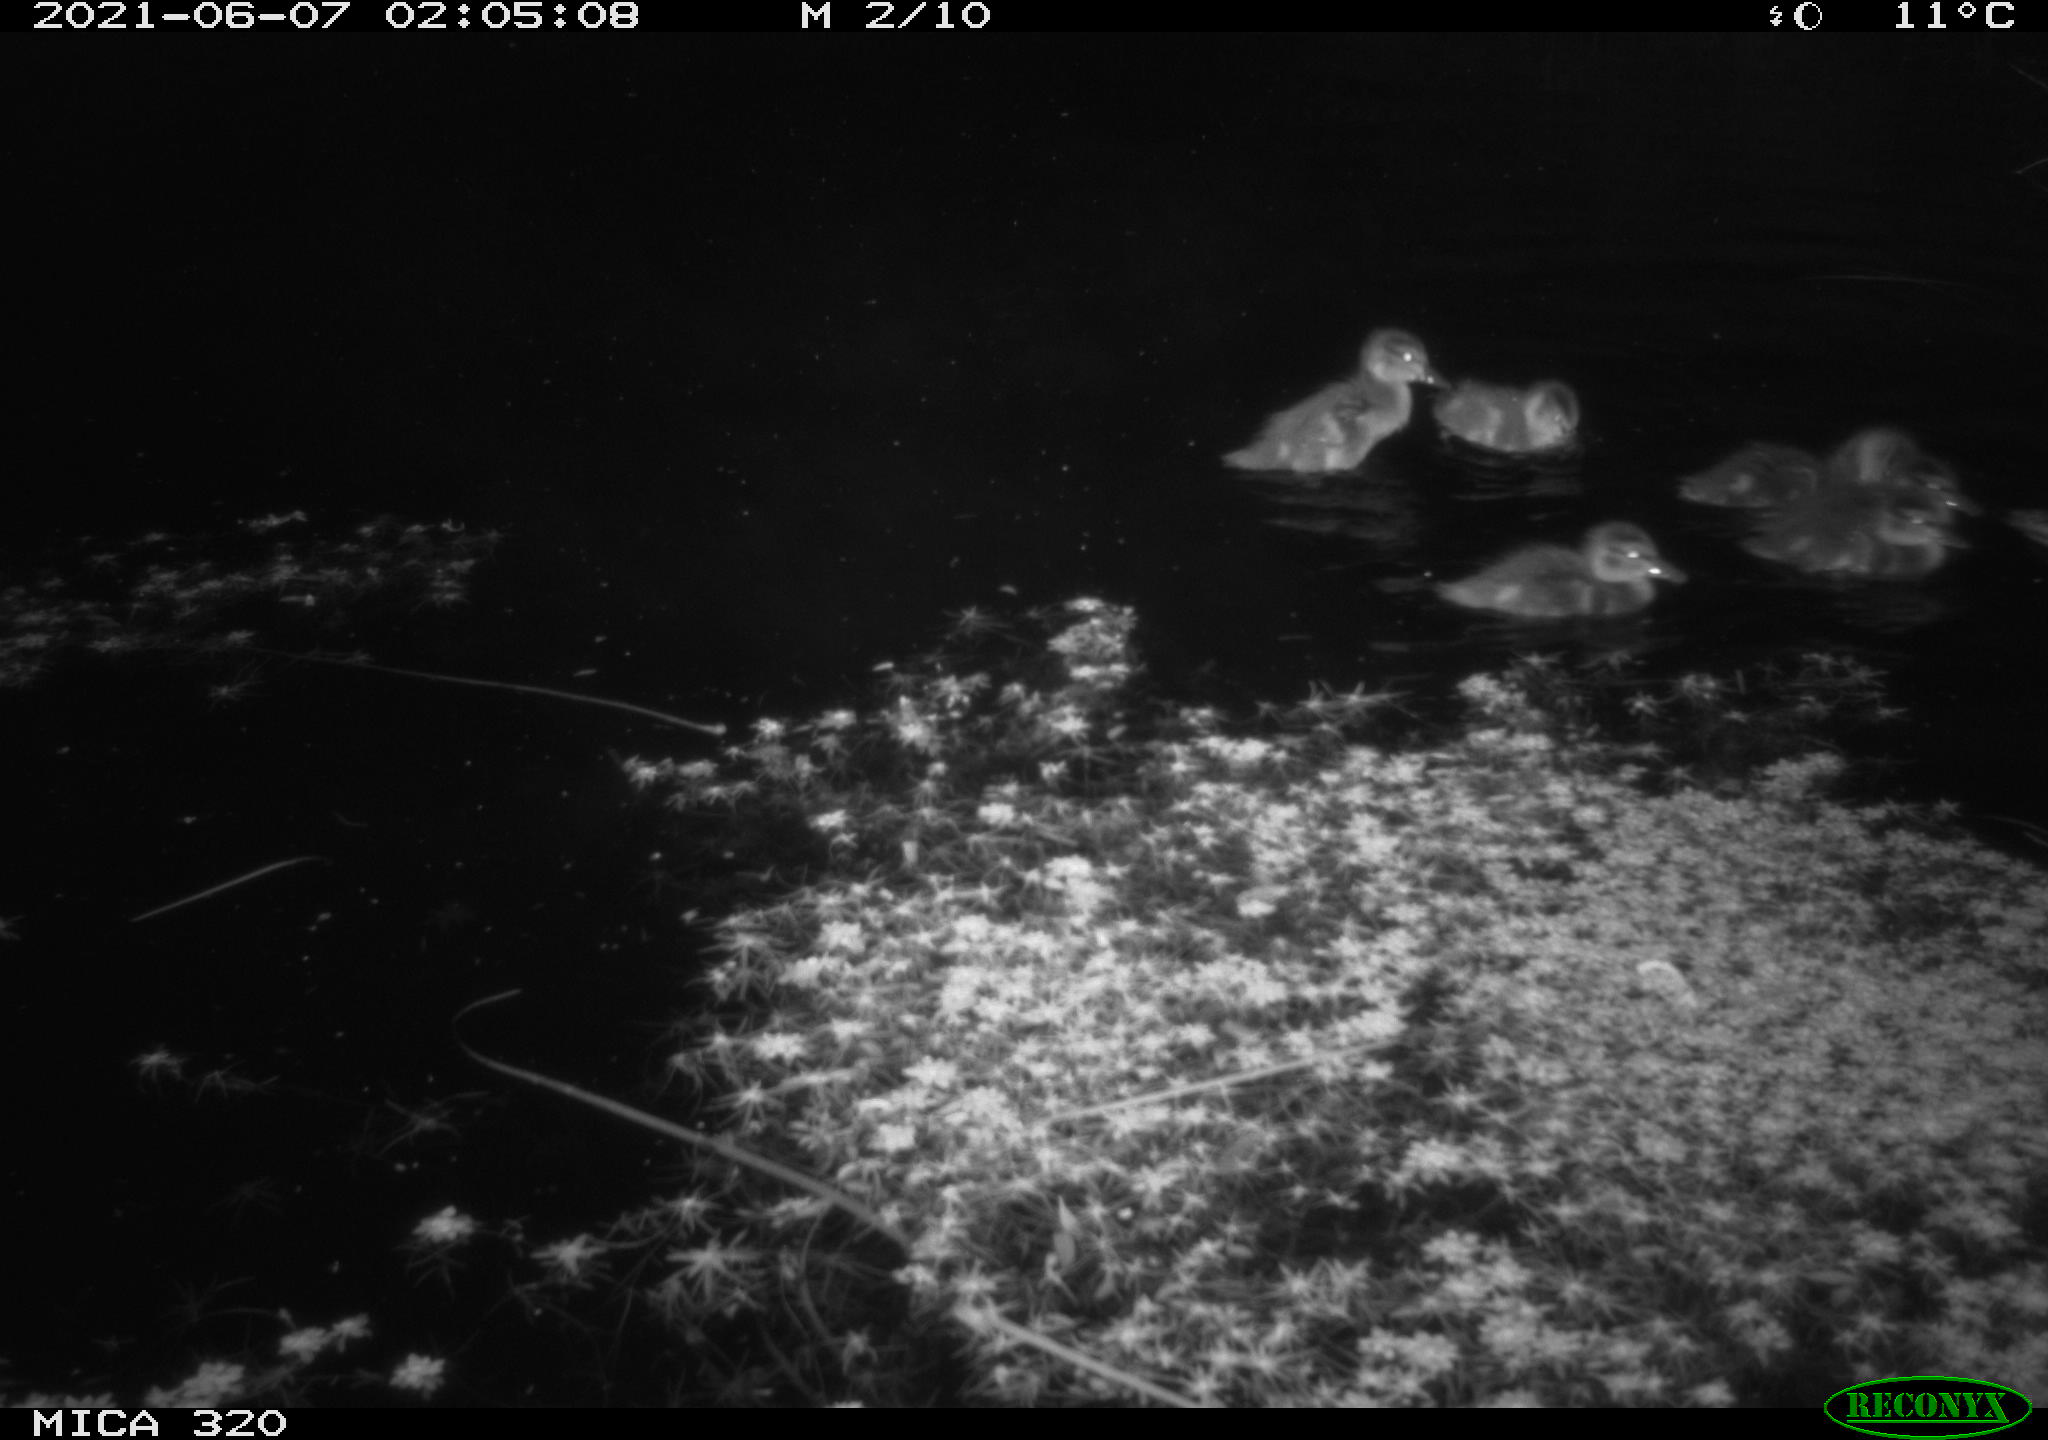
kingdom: Animalia
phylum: Chordata
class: Aves
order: Anseriformes
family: Anatidae
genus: Anas
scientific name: Anas platyrhynchos
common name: Mallard
